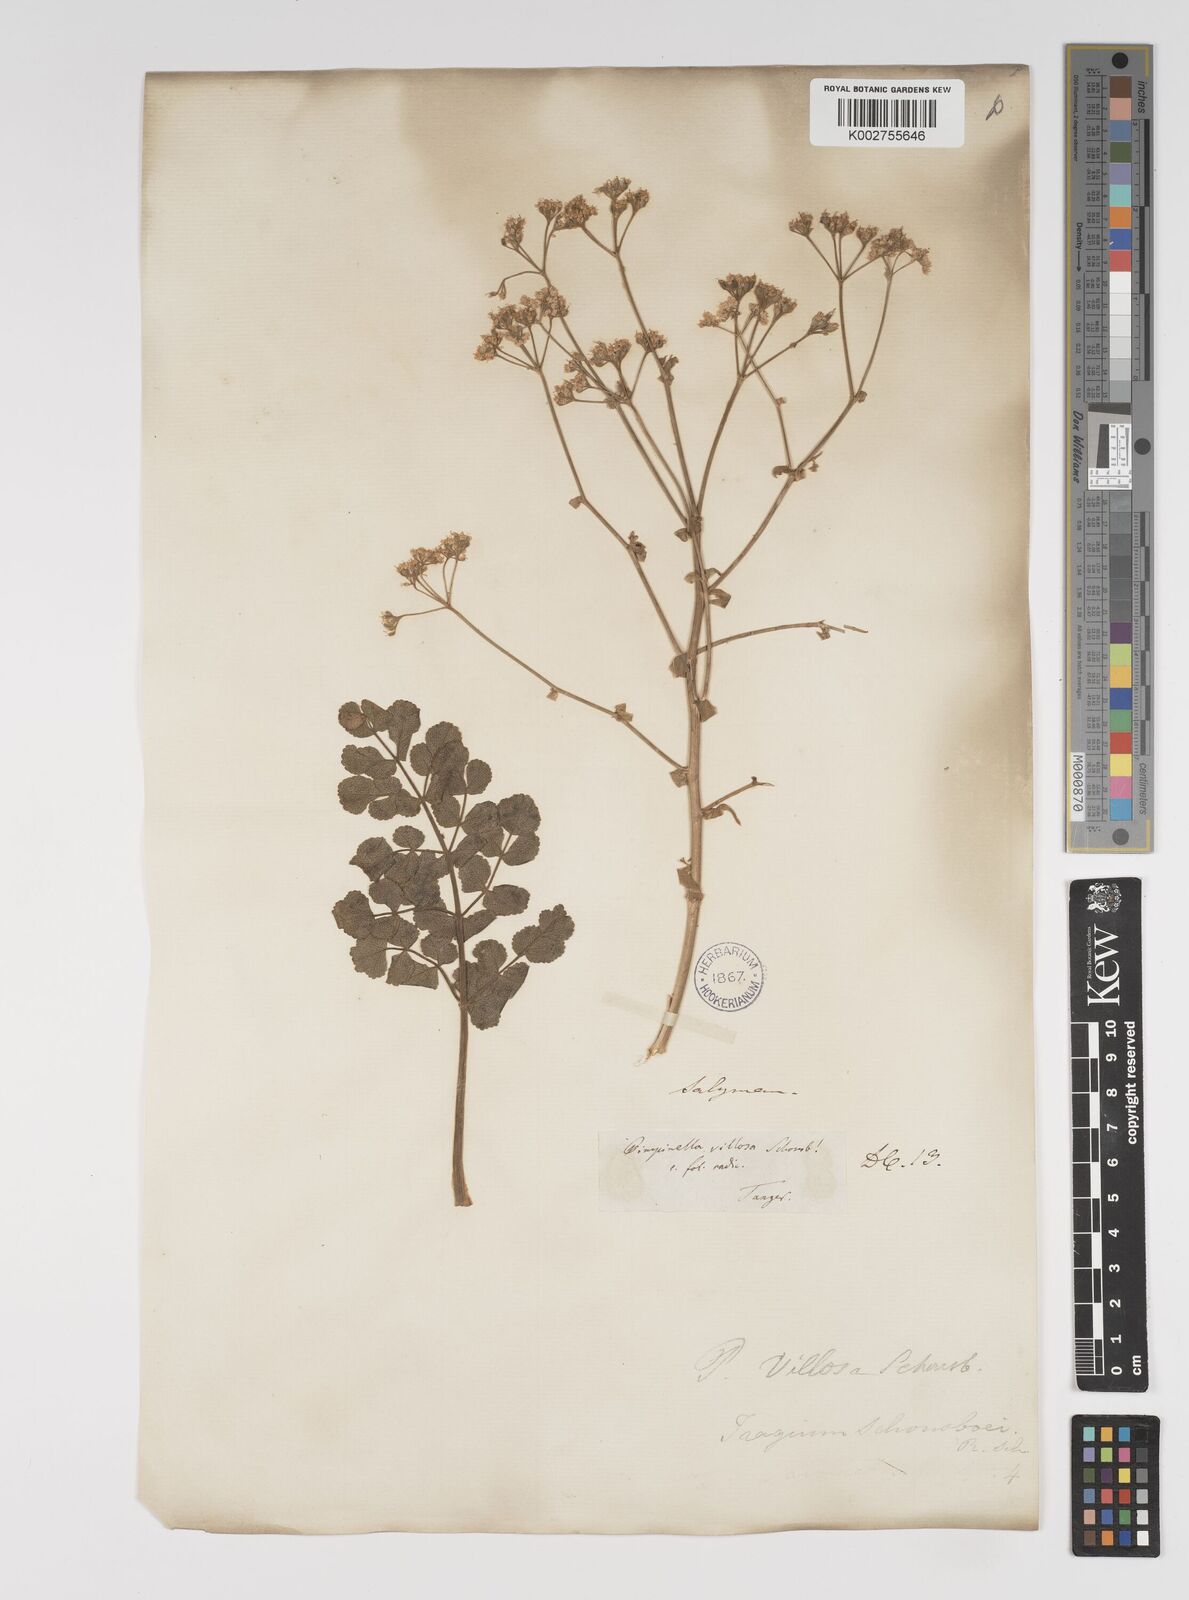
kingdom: Plantae
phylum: Tracheophyta
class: Magnoliopsida
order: Apiales
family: Apiaceae
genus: Pimpinella
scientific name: Pimpinella villosa
